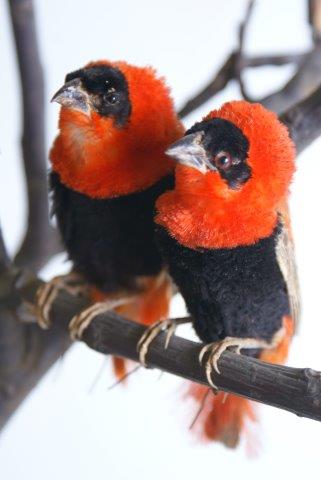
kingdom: Animalia
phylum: Chordata
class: Aves
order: Passeriformes
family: Ploceidae
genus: Euplectes
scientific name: Euplectes orix
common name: Southern red bishop
